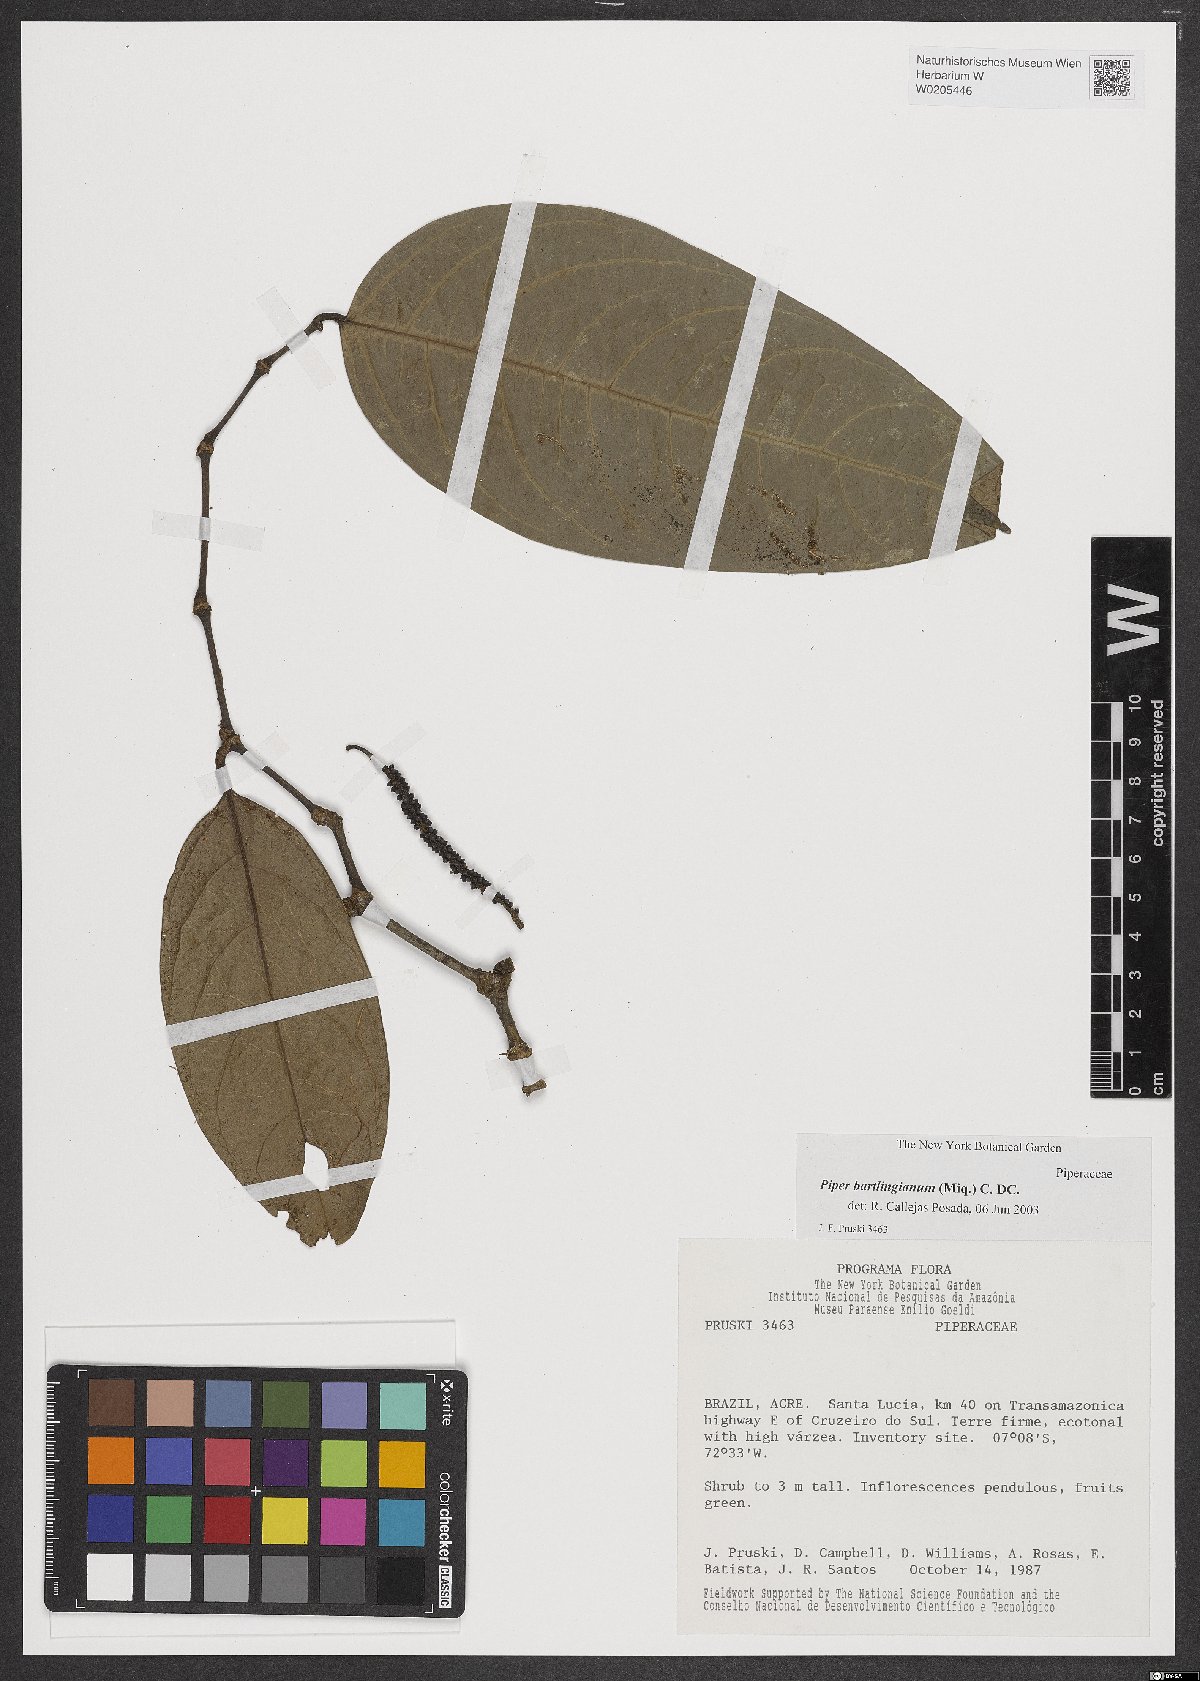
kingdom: Plantae
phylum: Tracheophyta
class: Magnoliopsida
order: Piperales
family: Piperaceae
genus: Piper
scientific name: Piper bartlingianum
